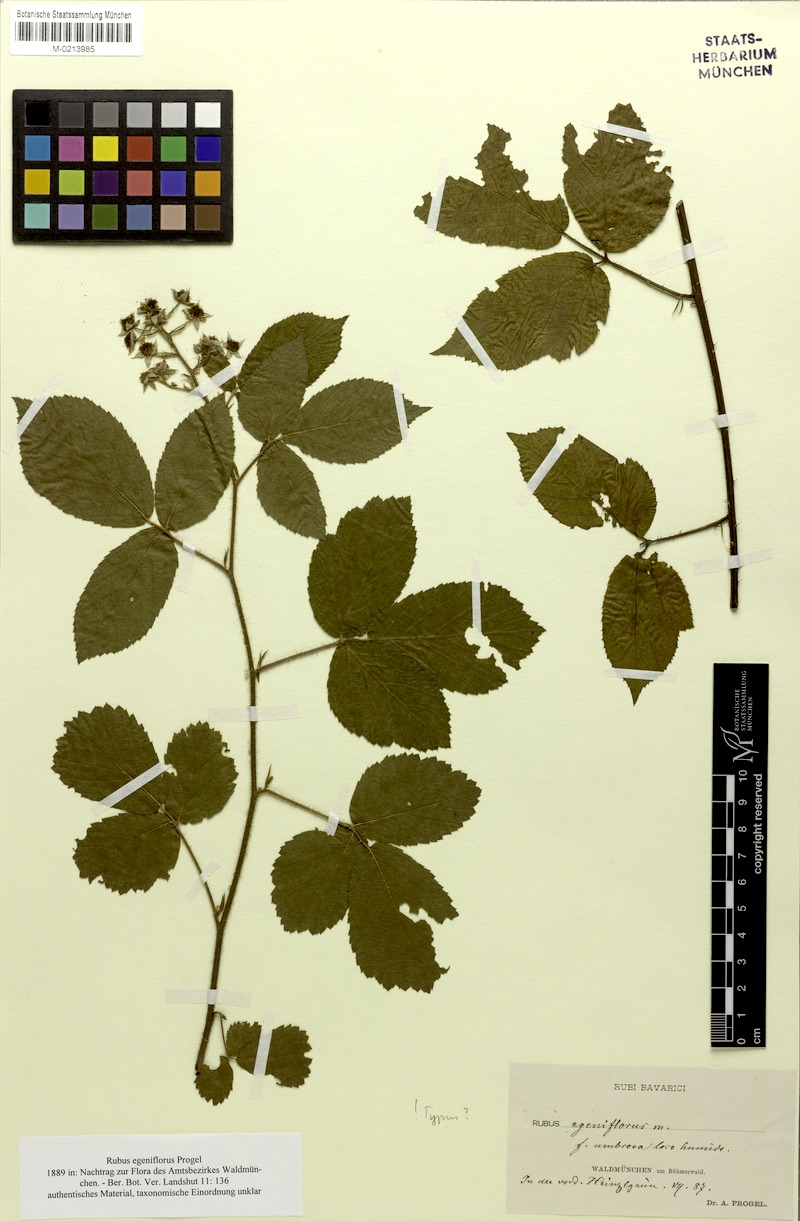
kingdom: Plantae
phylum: Tracheophyta
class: Magnoliopsida
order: Rosales
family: Rosaceae
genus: Rubus
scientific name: Rubus decurtatus
